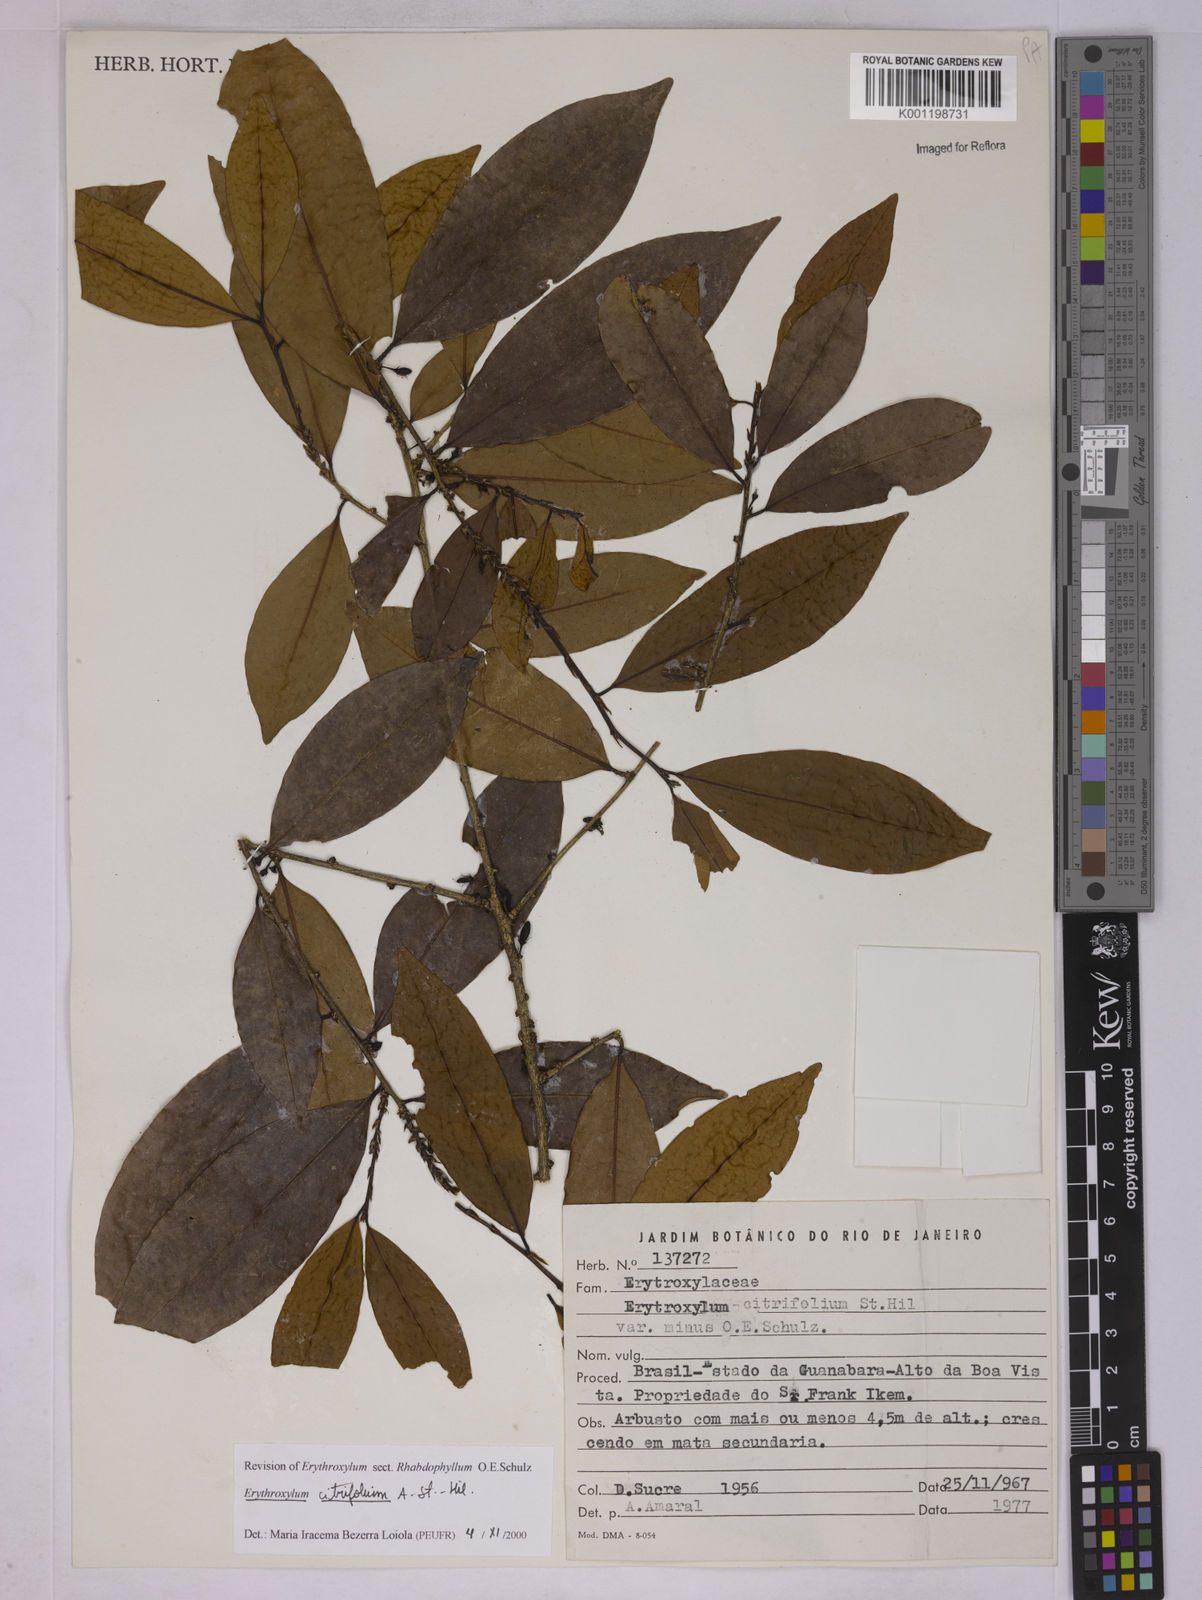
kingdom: Plantae
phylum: Tracheophyta
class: Magnoliopsida
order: Malpighiales
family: Erythroxylaceae
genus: Erythroxylum
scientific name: Erythroxylum citrifolium
